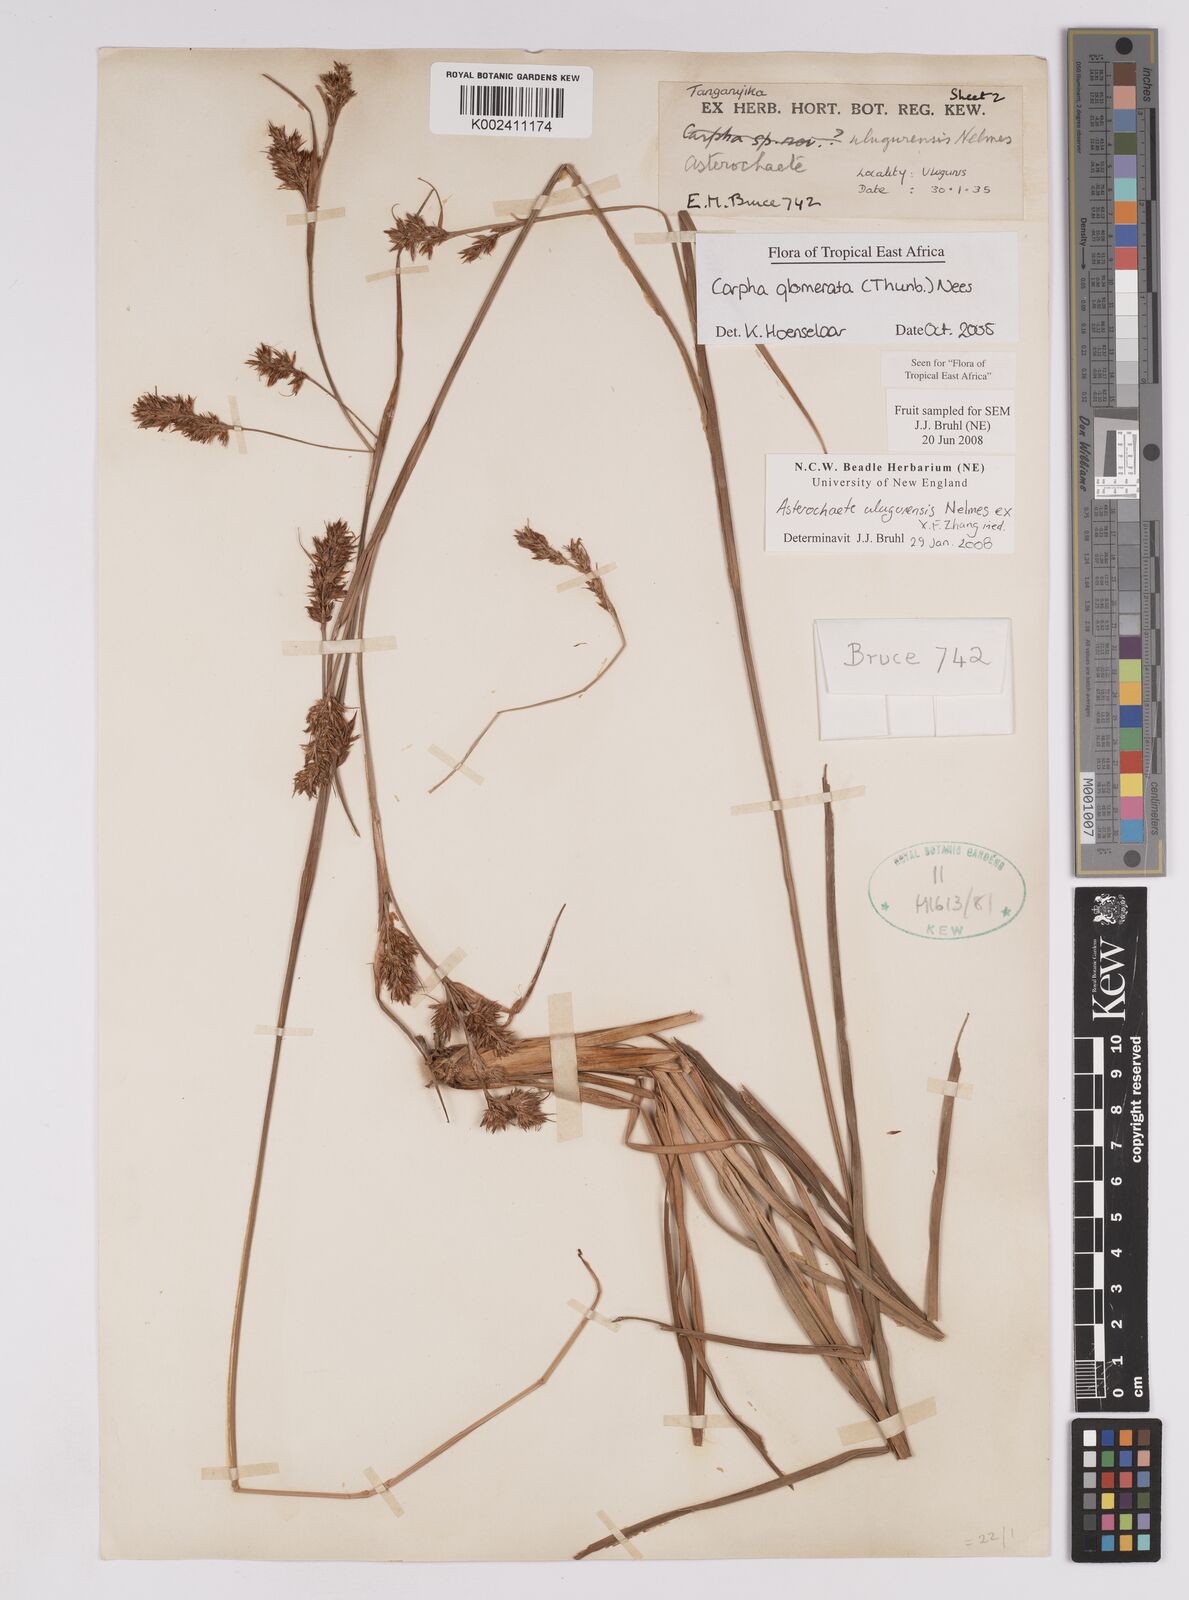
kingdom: Plantae
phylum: Tracheophyta
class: Liliopsida
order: Poales
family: Cyperaceae
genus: Carpha
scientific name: Carpha
